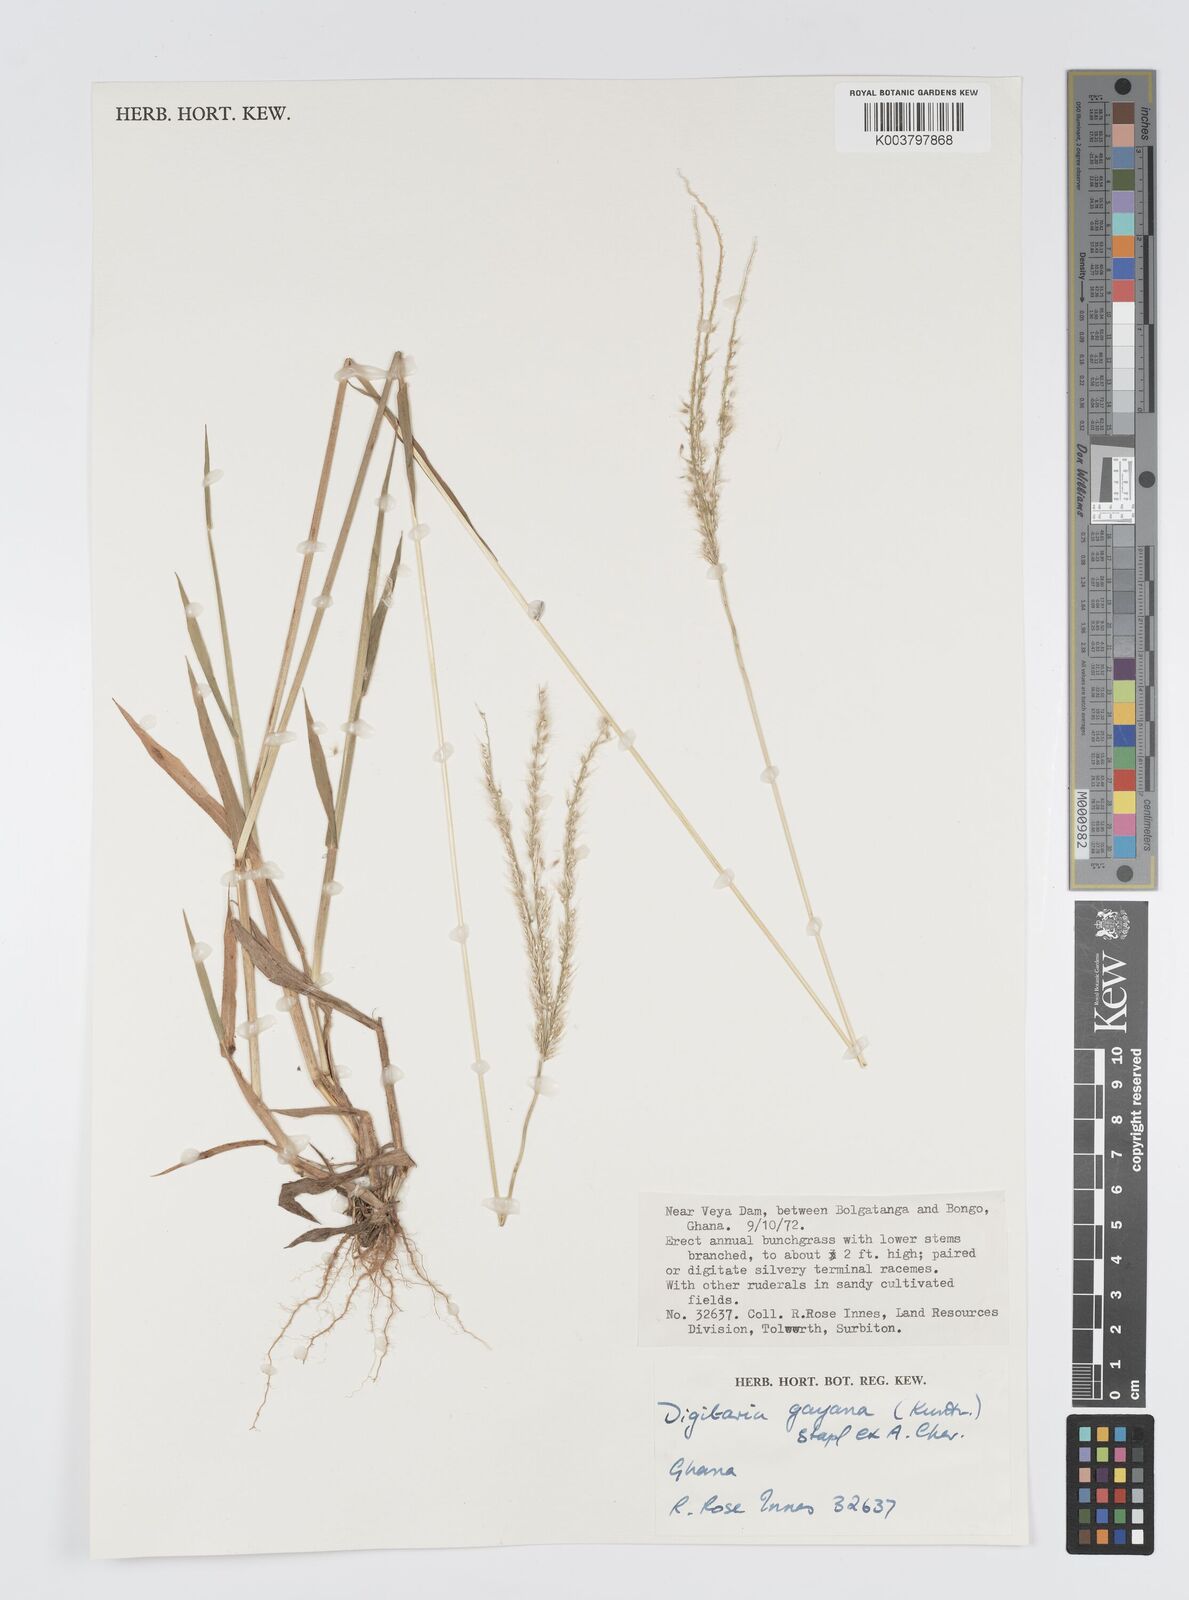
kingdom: Plantae
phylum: Tracheophyta
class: Liliopsida
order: Poales
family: Poaceae
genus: Digitaria
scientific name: Digitaria gayana
